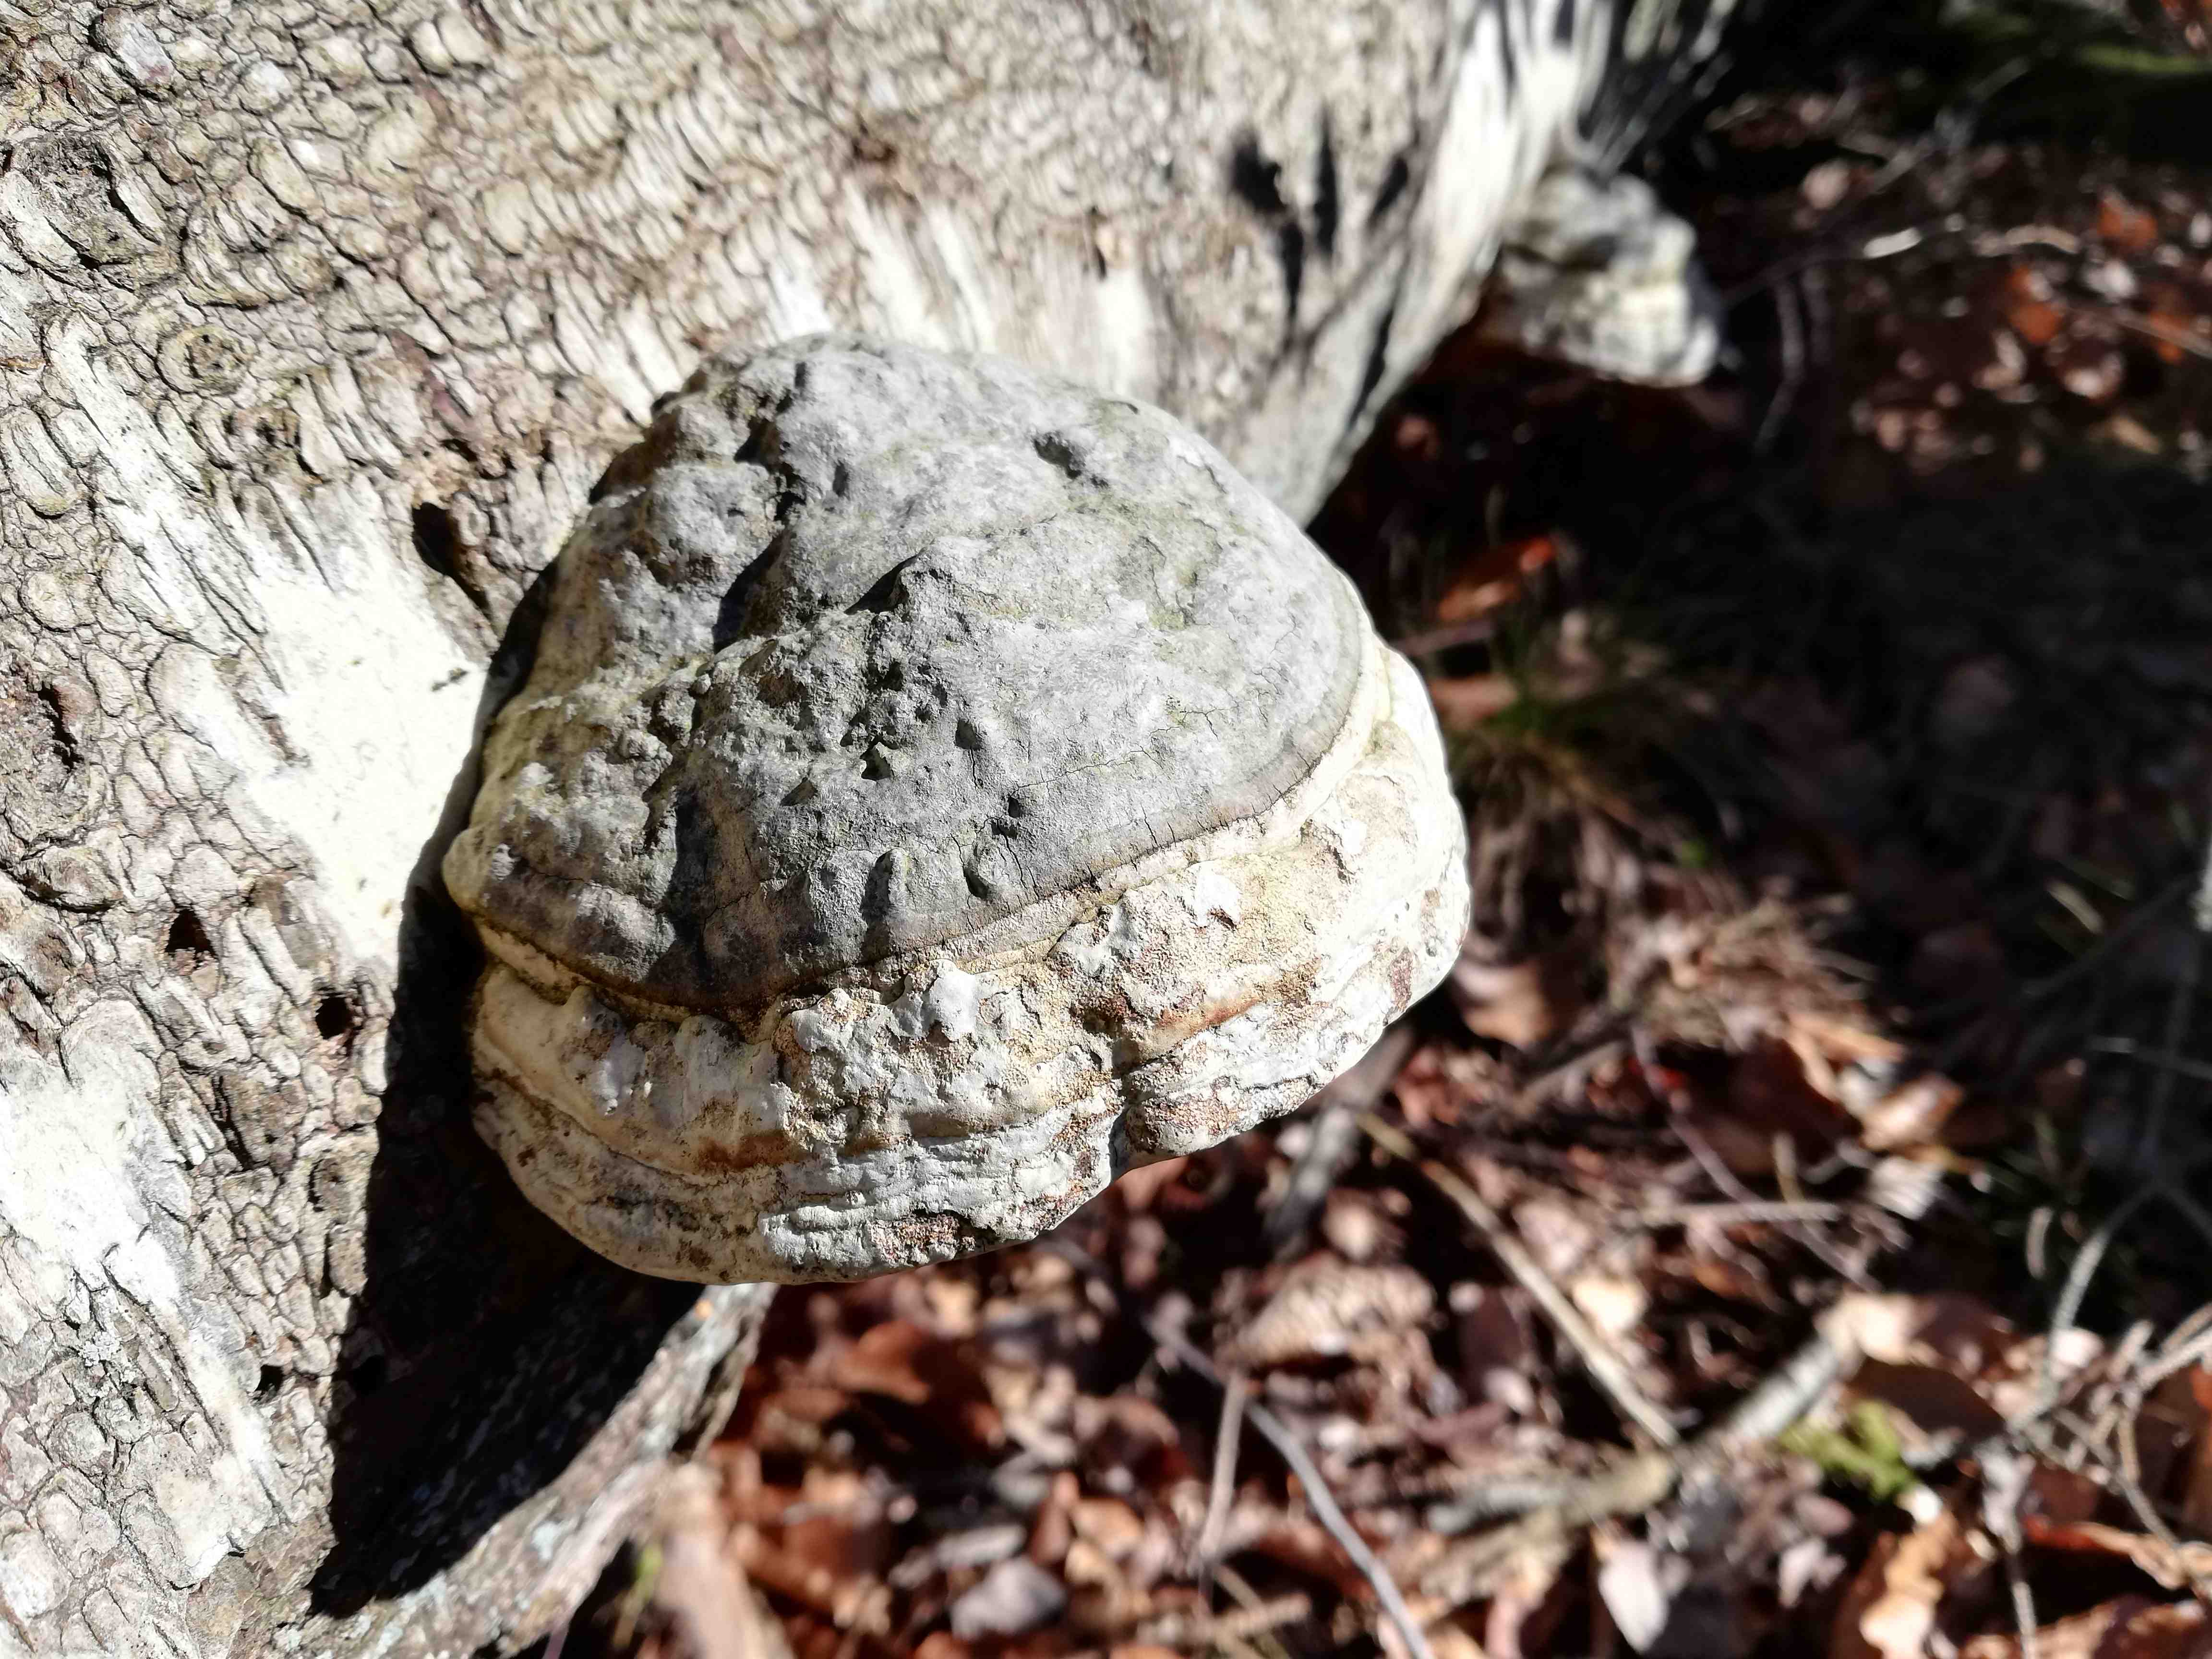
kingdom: Fungi
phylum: Basidiomycota
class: Agaricomycetes
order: Polyporales
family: Polyporaceae
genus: Fomes
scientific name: Fomes fomentarius
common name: tøndersvamp
